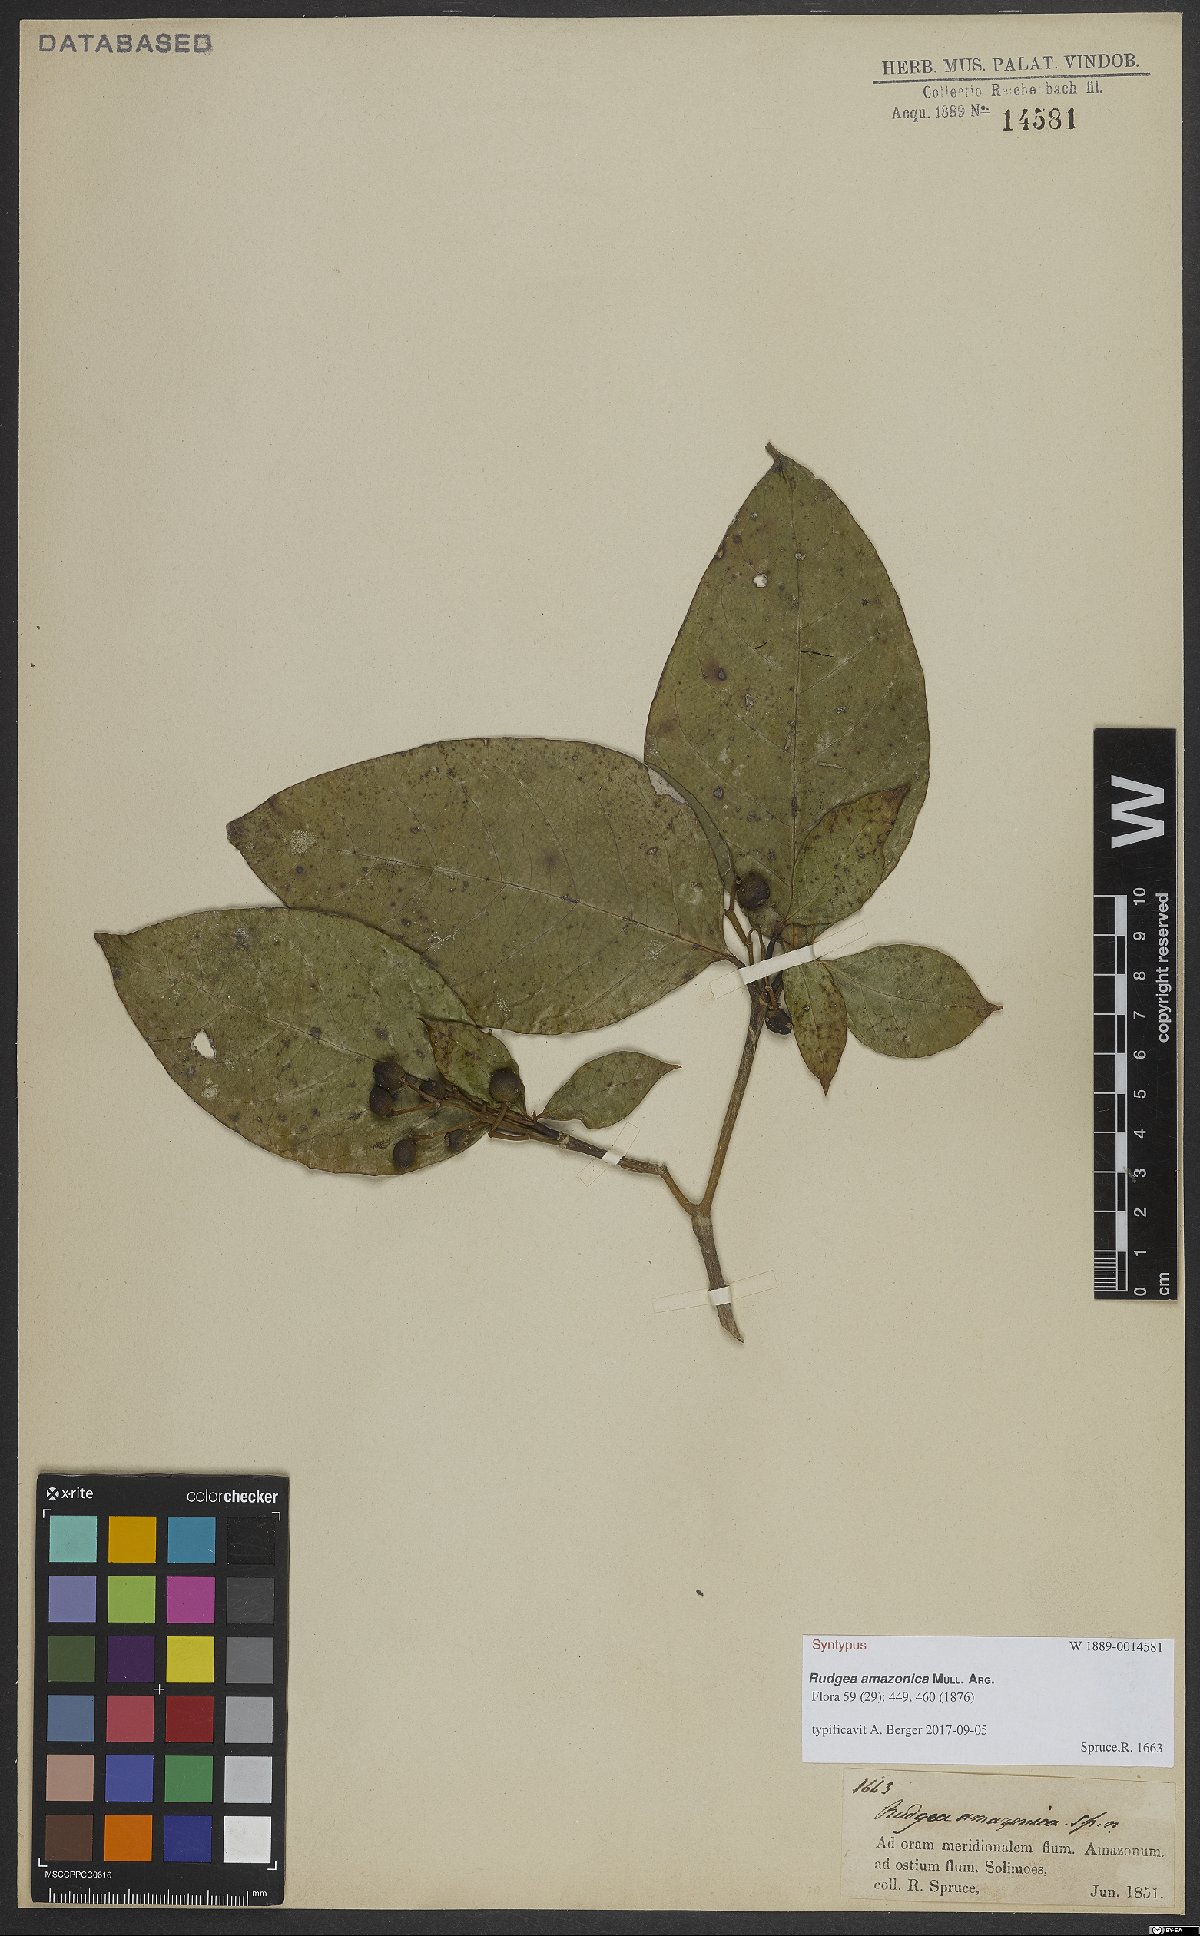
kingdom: Plantae
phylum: Tracheophyta
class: Magnoliopsida
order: Gentianales
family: Rubiaceae
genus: Rudgea
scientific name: Rudgea amazonica
